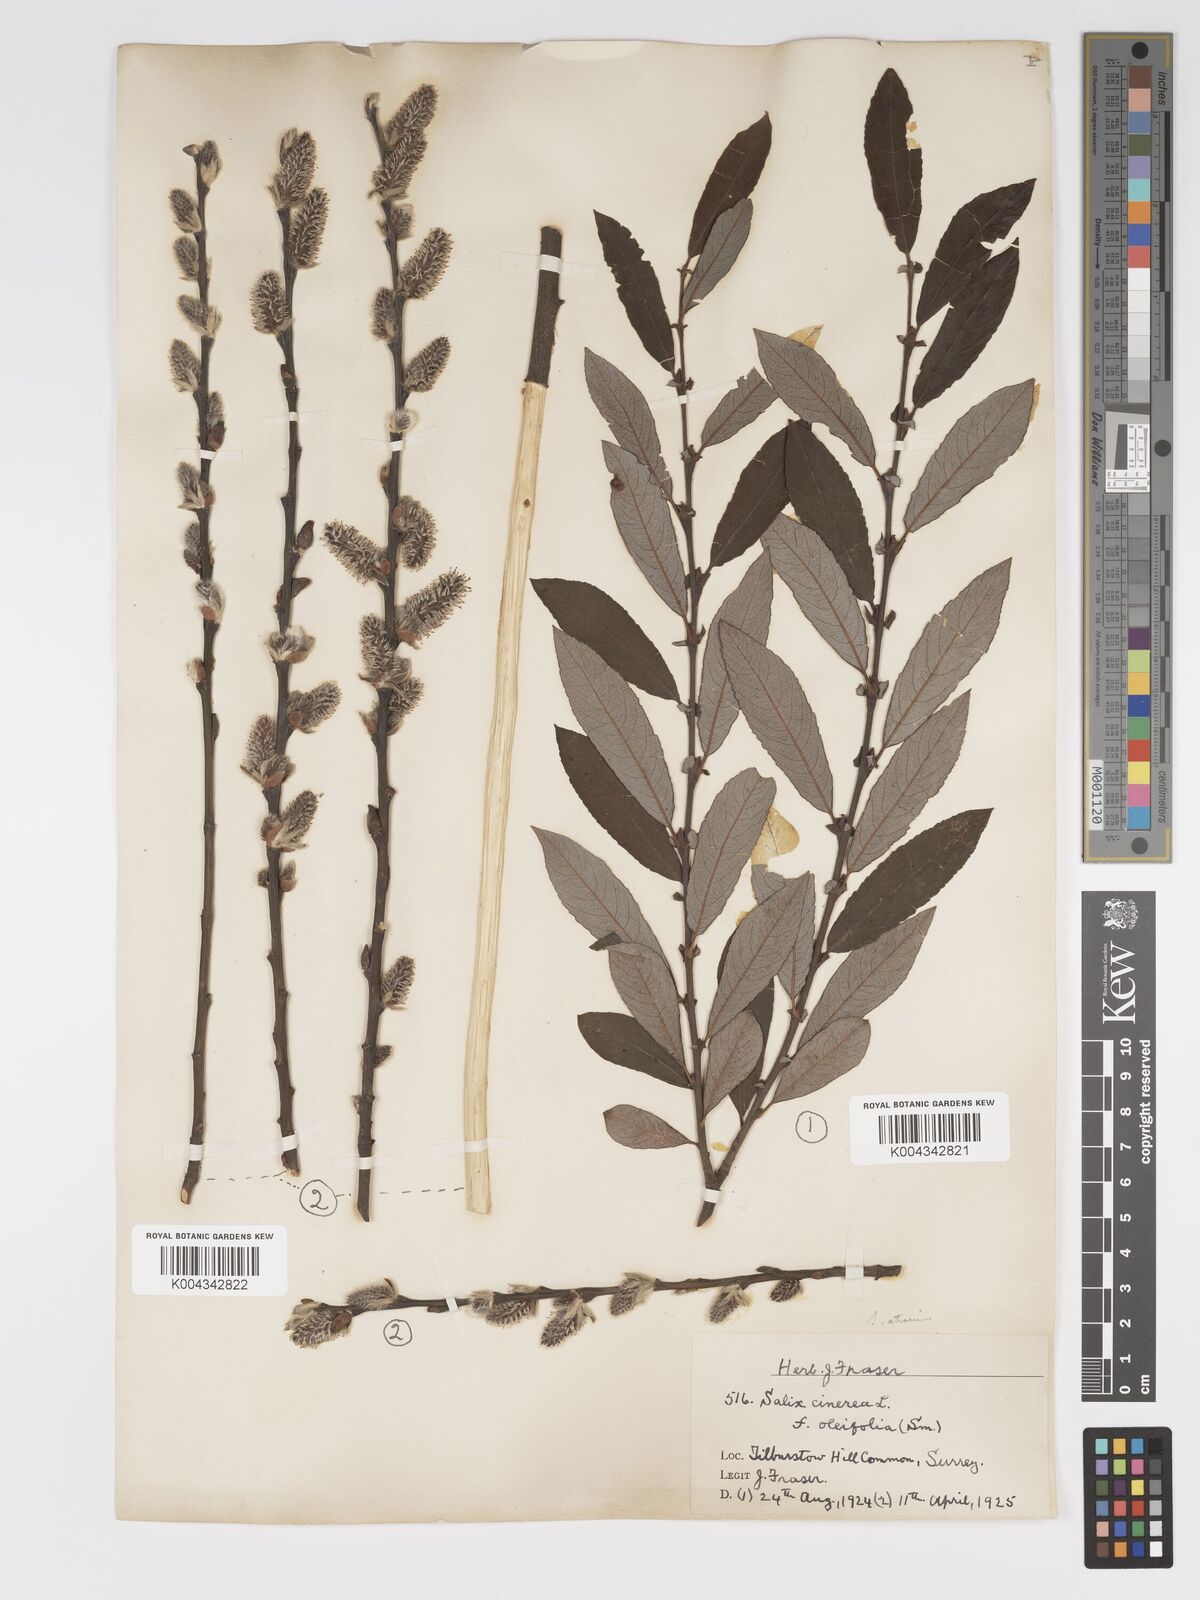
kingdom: Plantae
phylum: Tracheophyta
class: Magnoliopsida
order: Malpighiales
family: Salicaceae
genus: Salix
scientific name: Salix atrocinerea
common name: Rusty willow
